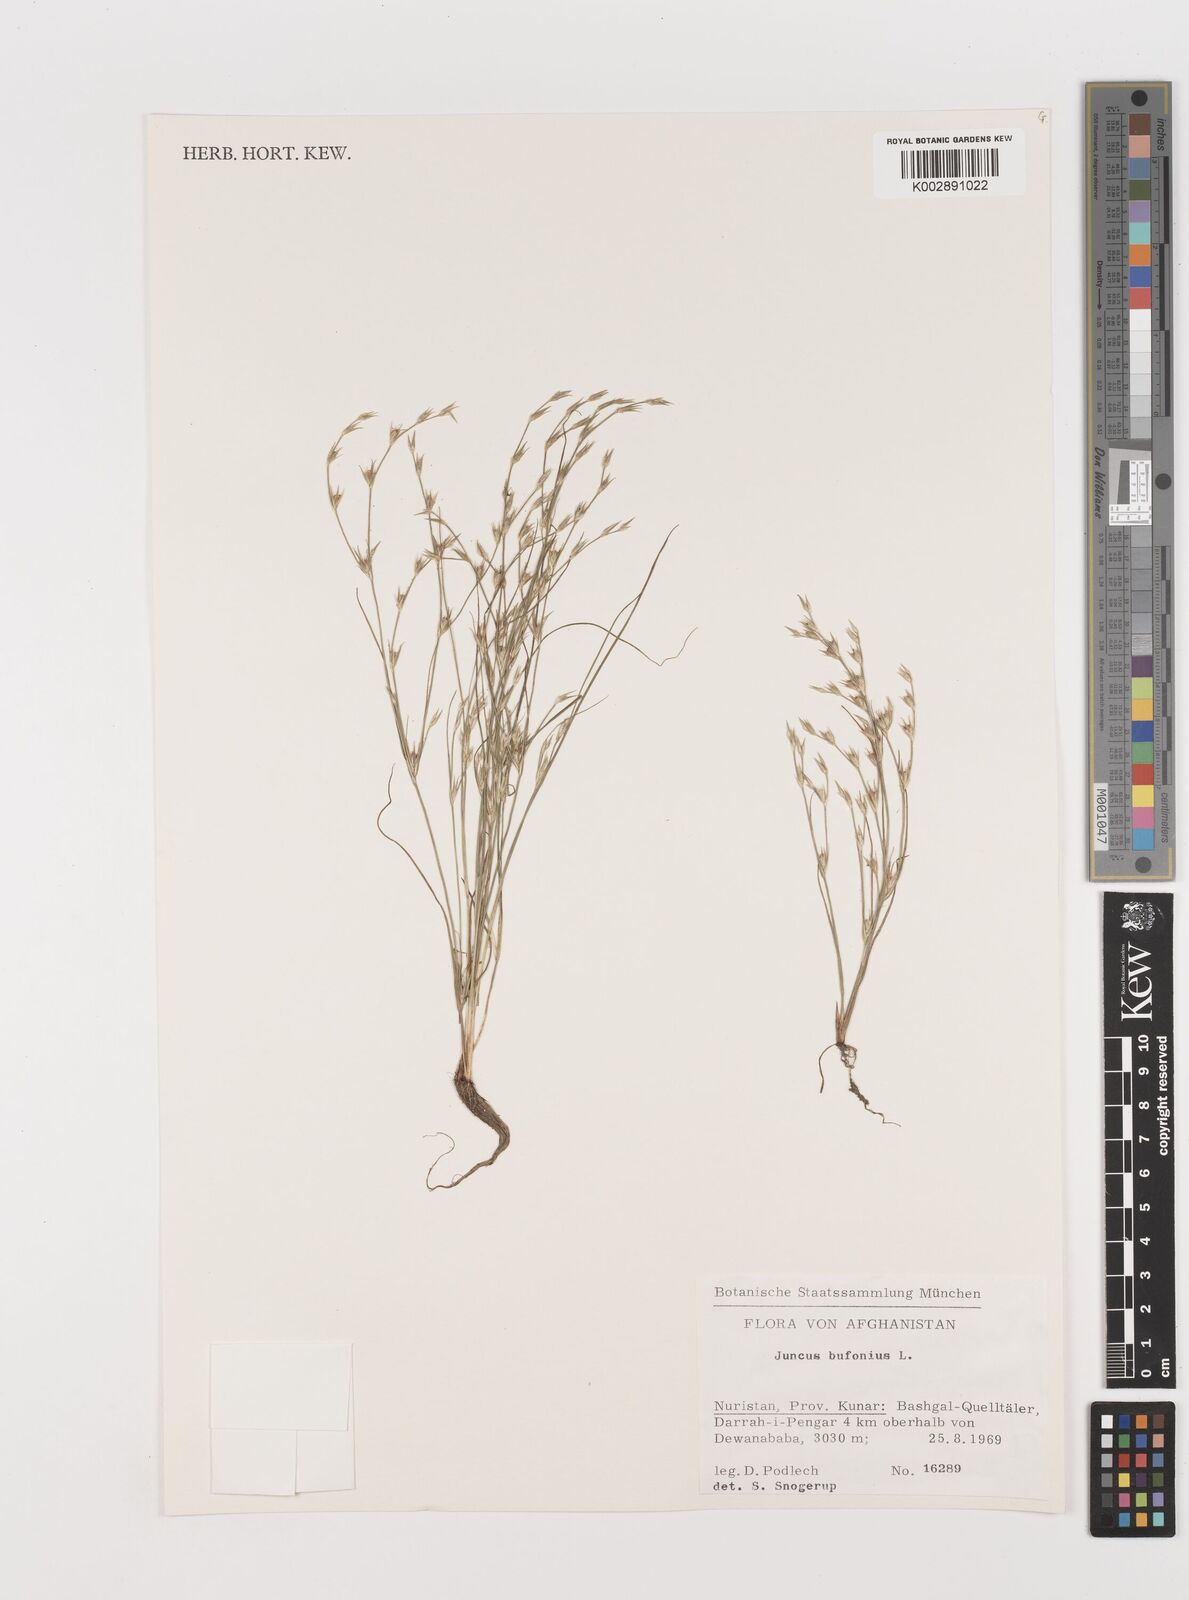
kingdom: Plantae
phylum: Tracheophyta
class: Liliopsida
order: Poales
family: Juncaceae
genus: Juncus
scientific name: Juncus bufonius
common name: Toad rush
